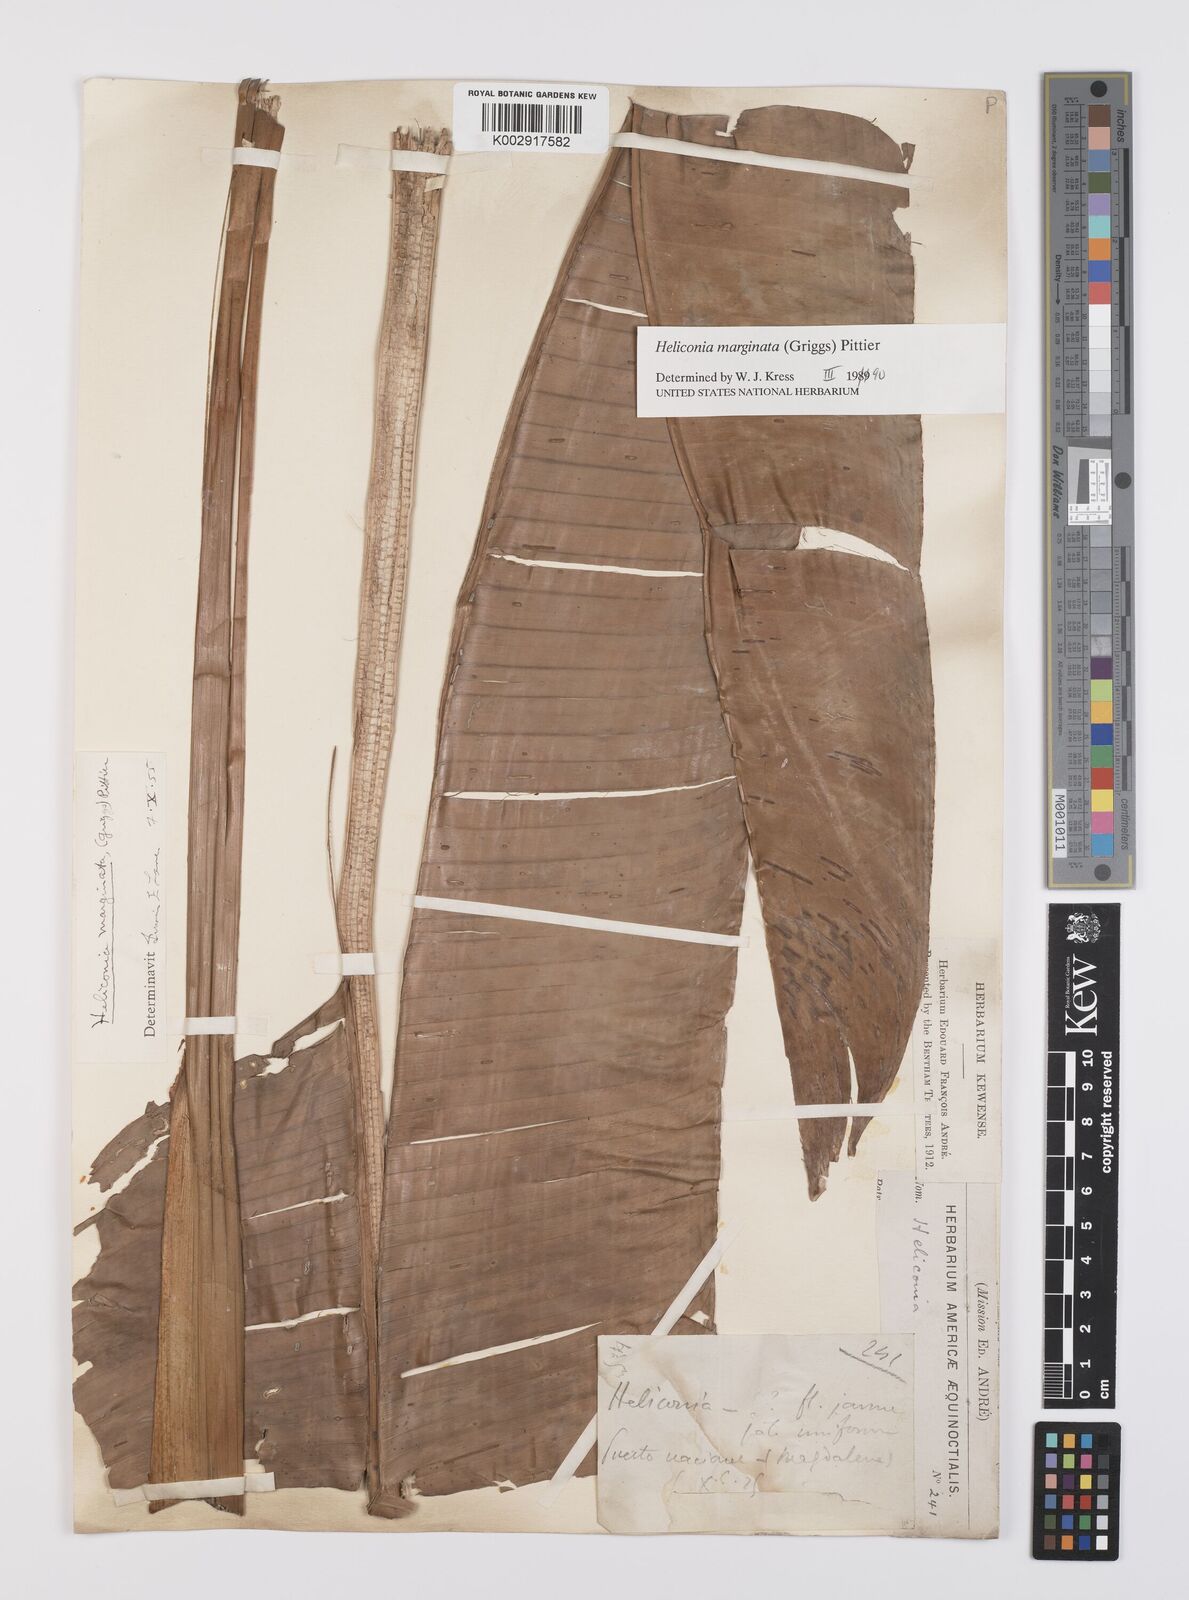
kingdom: Plantae
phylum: Tracheophyta
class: Liliopsida
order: Zingiberales
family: Heliconiaceae
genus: Heliconia
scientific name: Heliconia marginata
